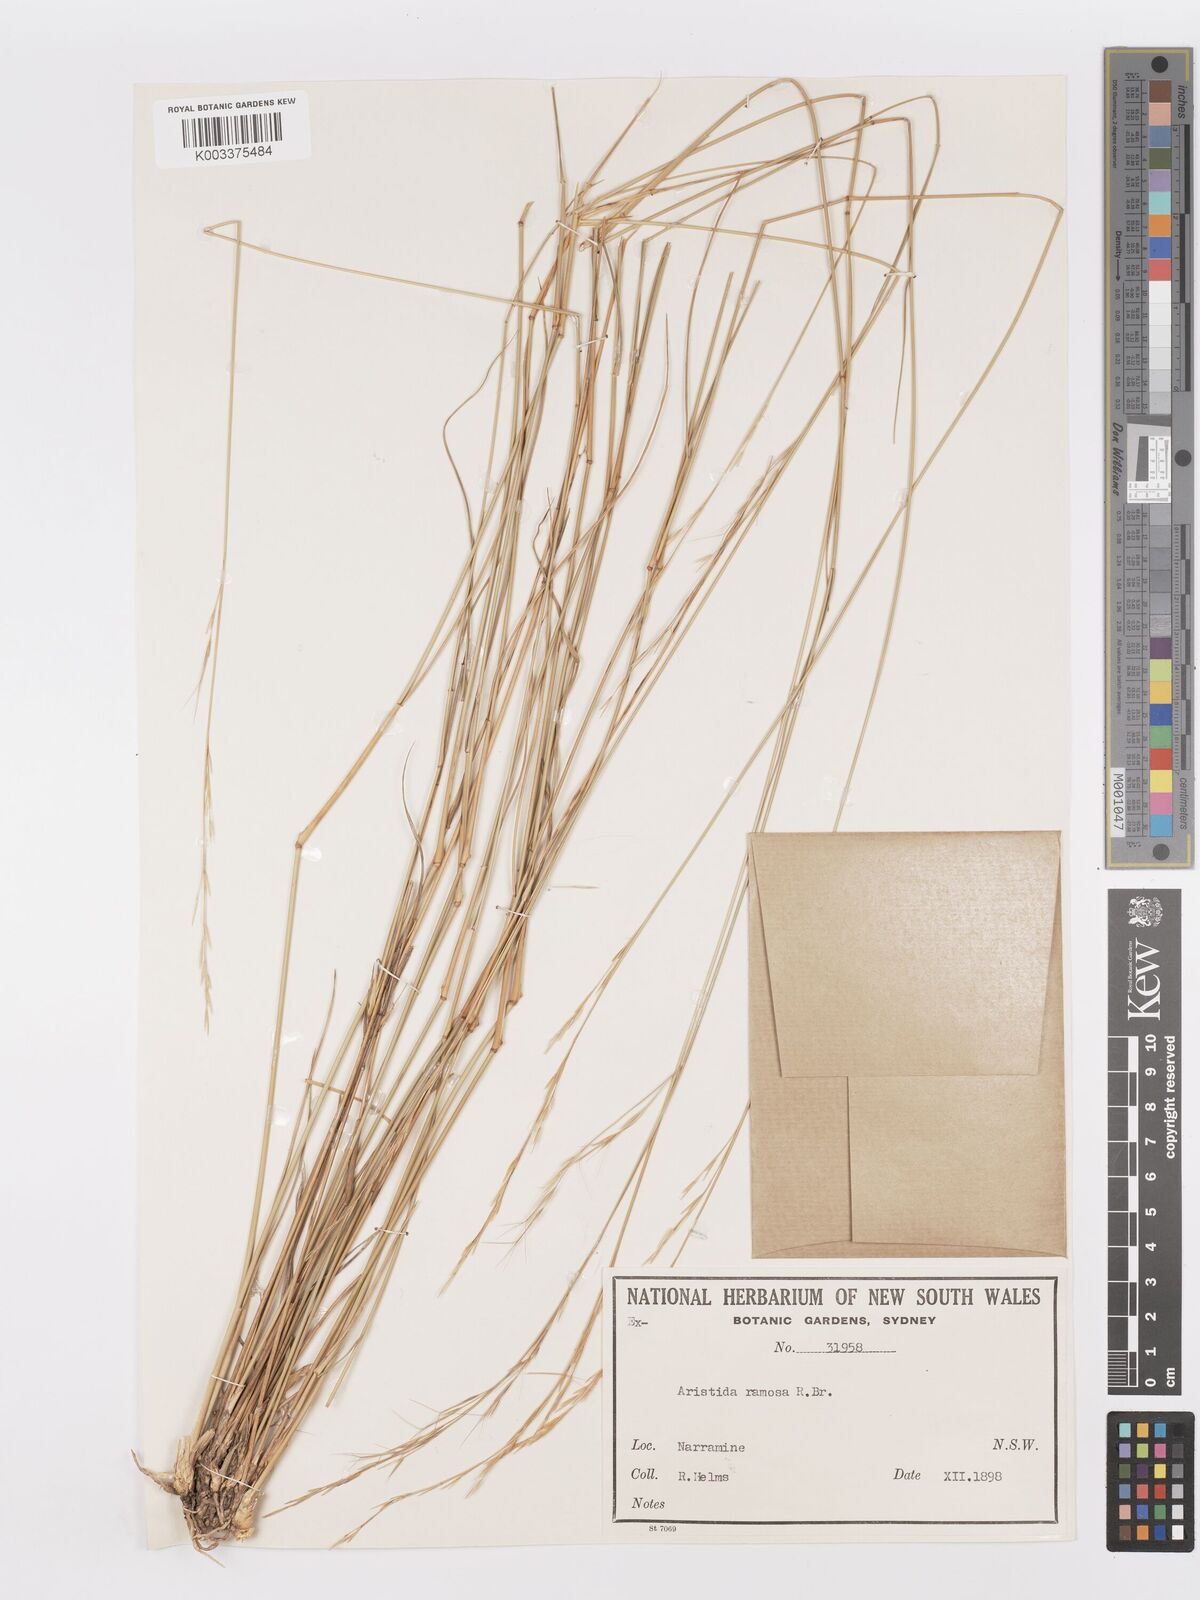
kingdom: Plantae
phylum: Tracheophyta
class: Liliopsida
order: Poales
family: Poaceae
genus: Aristida
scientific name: Aristida ramosa
